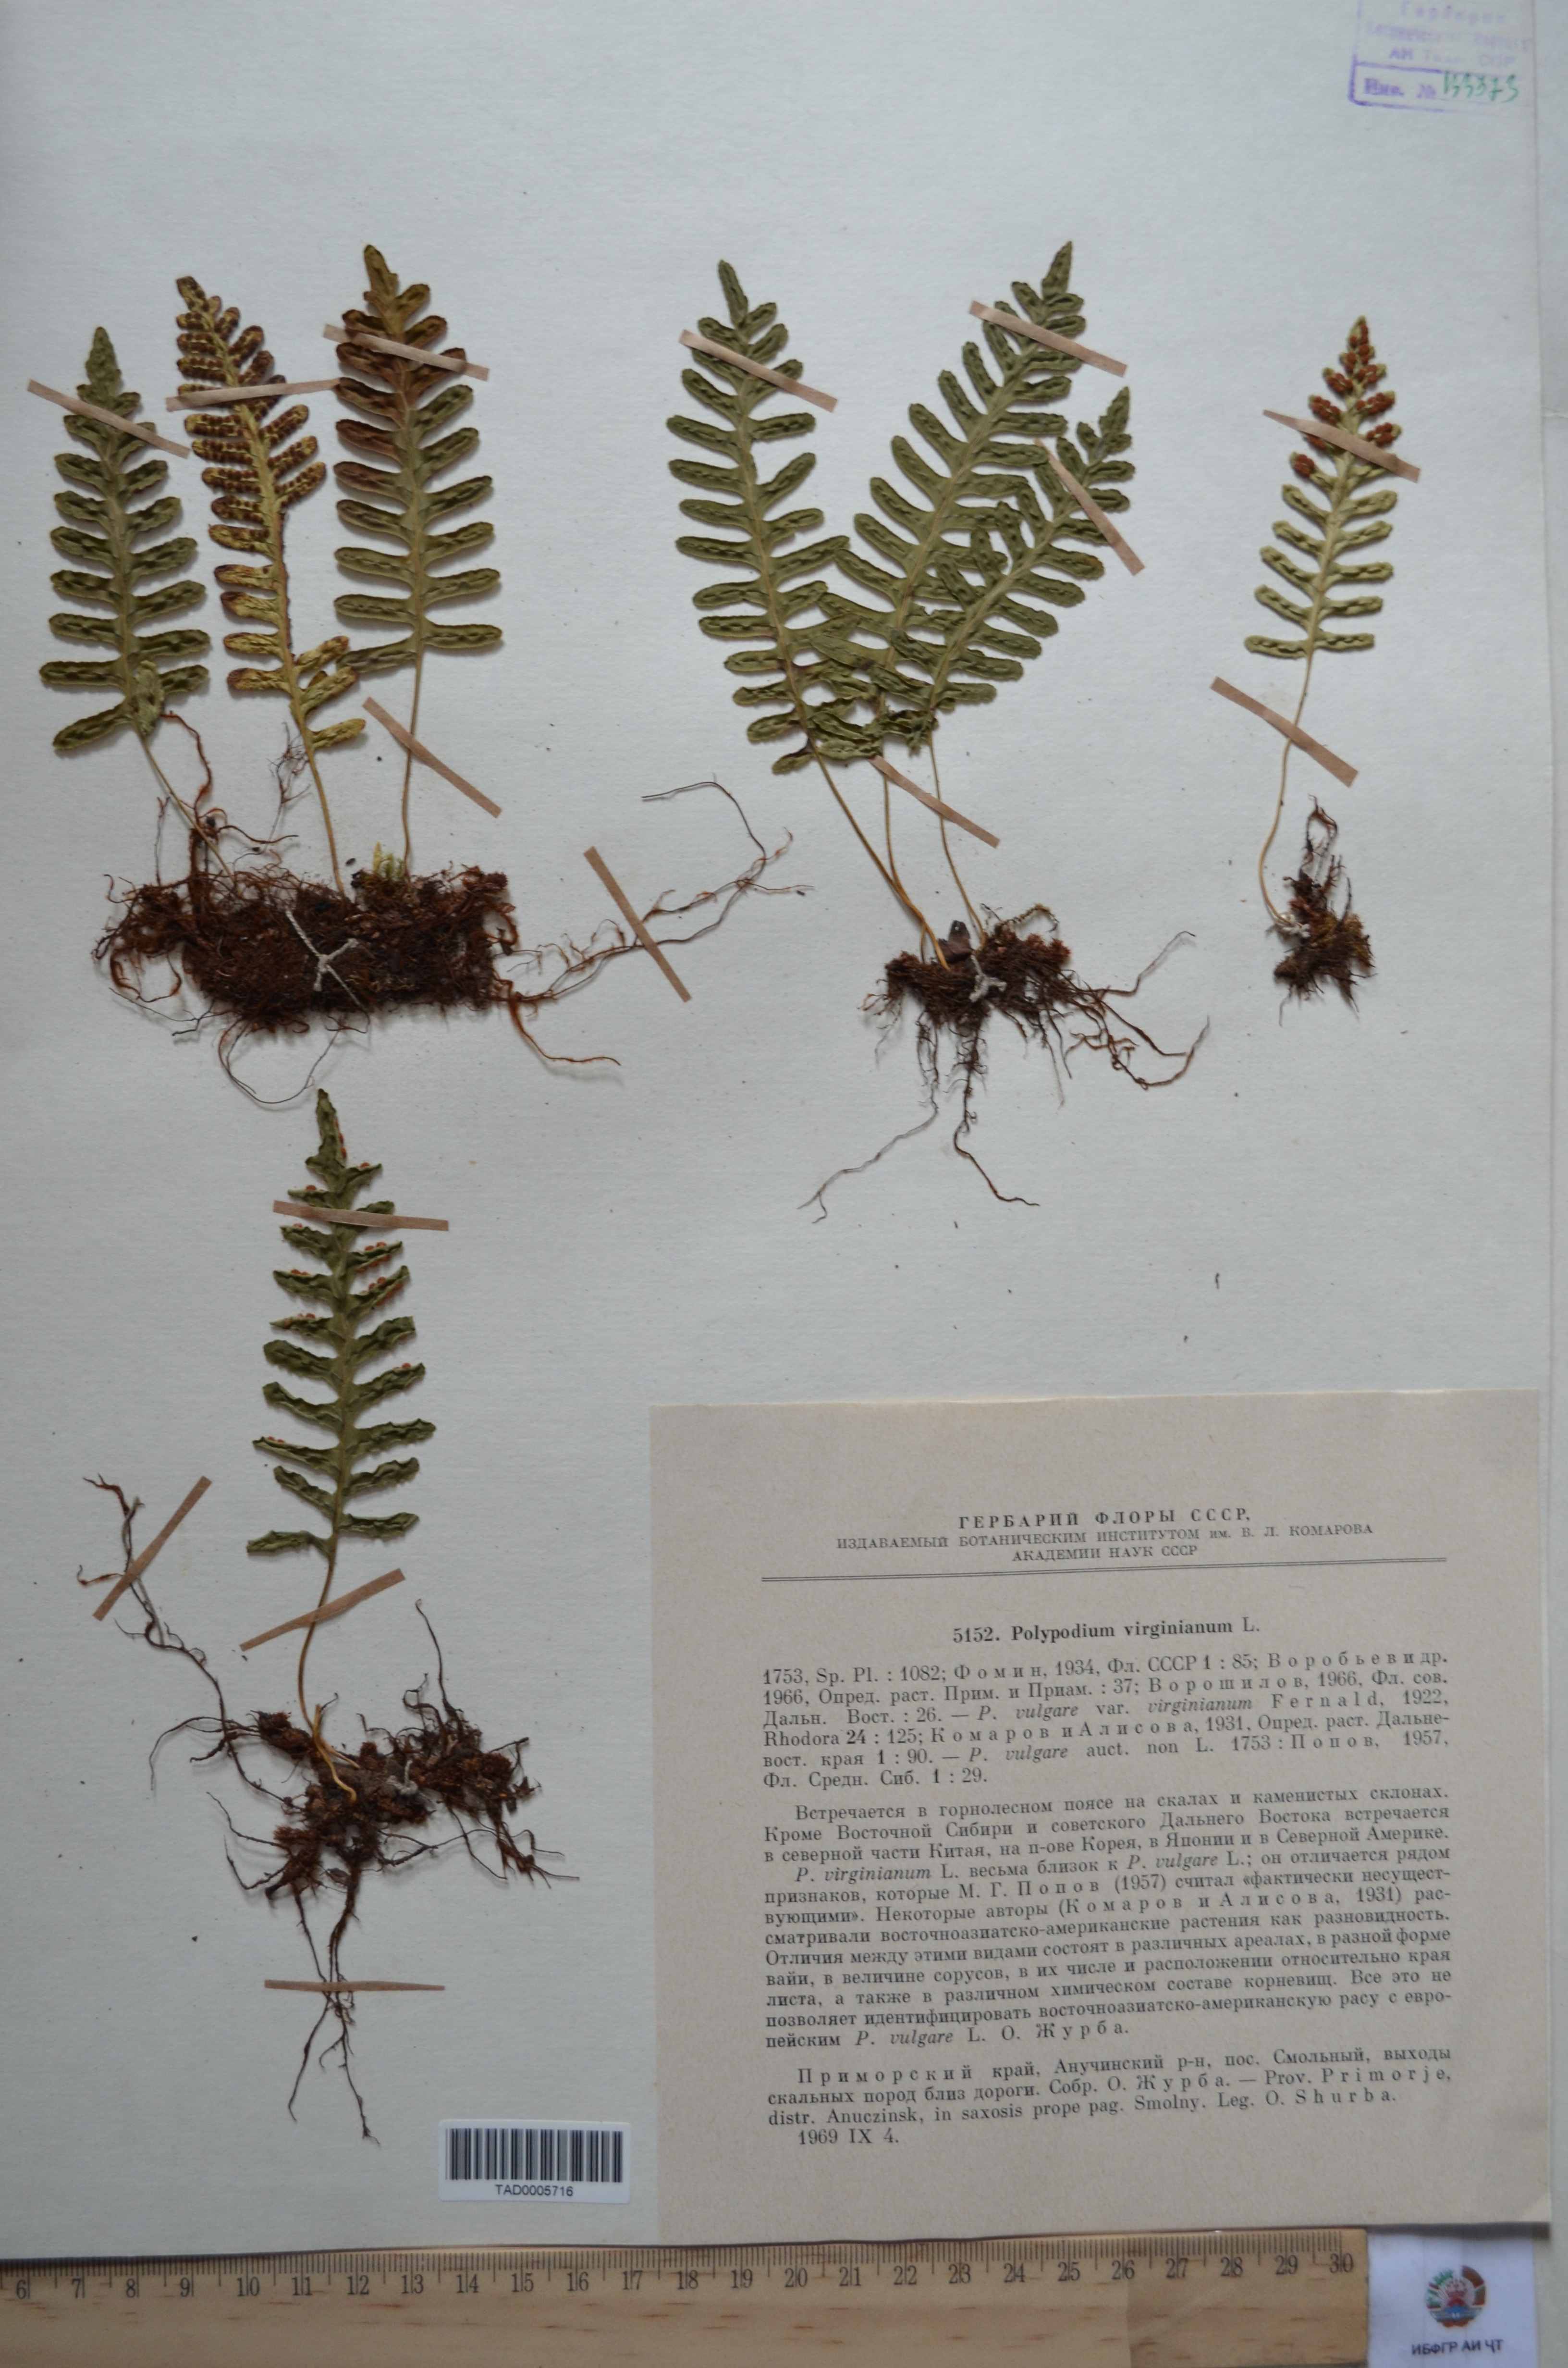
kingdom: Plantae
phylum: Tracheophyta
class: Polypodiopsida
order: Polypodiales
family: Polypodiaceae
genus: Polypodium
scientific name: Polypodium virginianum
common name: American wall fern
